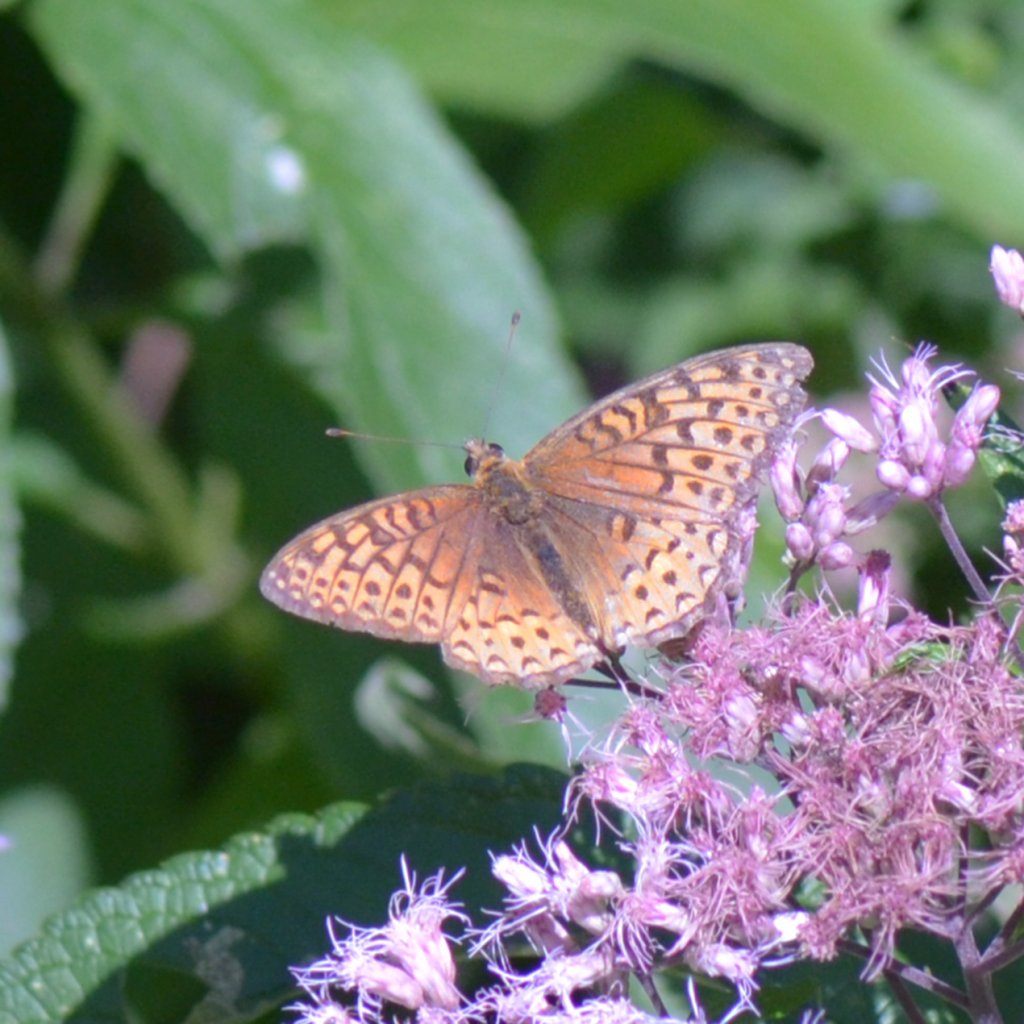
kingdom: Animalia
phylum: Arthropoda
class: Insecta
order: Lepidoptera
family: Nymphalidae
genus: Speyeria
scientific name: Speyeria atlantis
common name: Atlantis Fritillary
